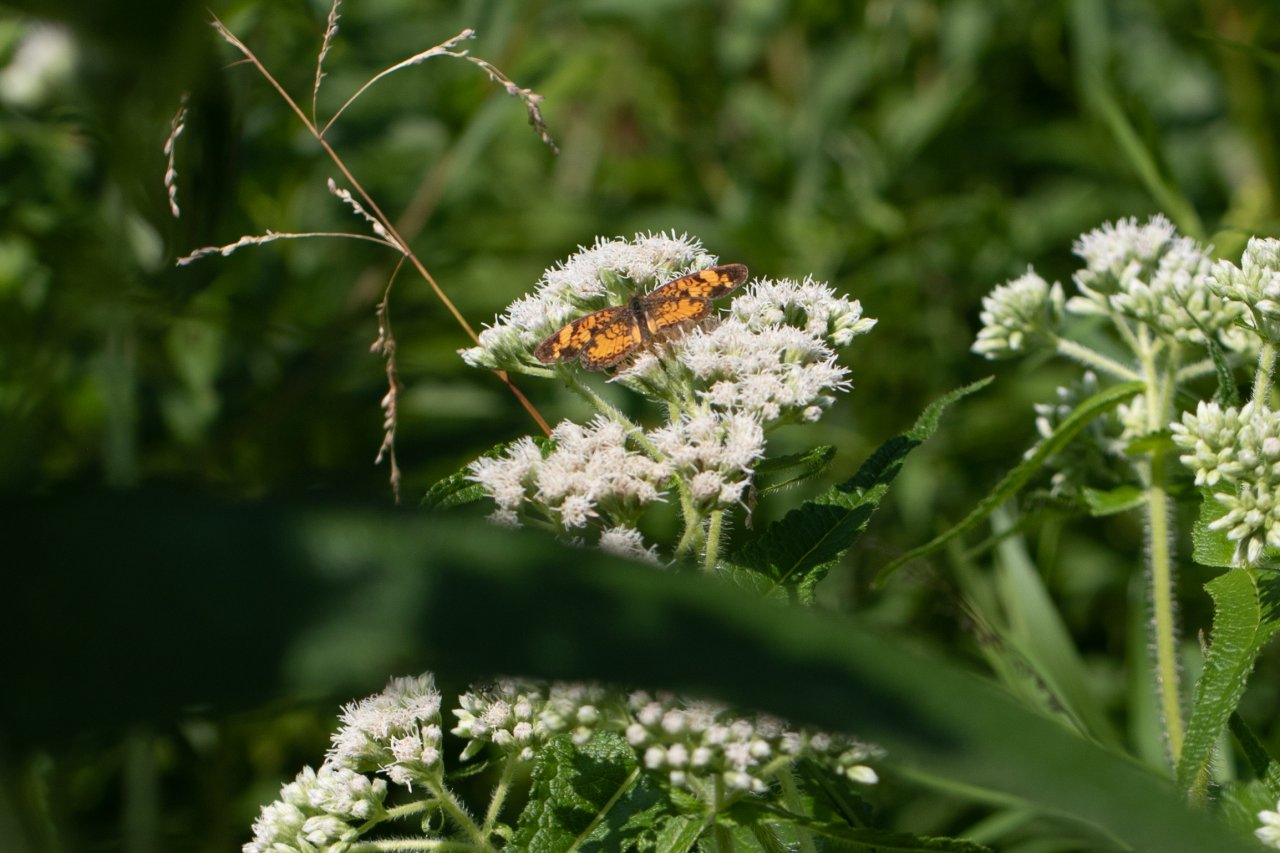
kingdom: Animalia
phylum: Arthropoda
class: Insecta
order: Lepidoptera
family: Nymphalidae
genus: Phyciodes
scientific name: Phyciodes tharos
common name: Pearl Crescent
